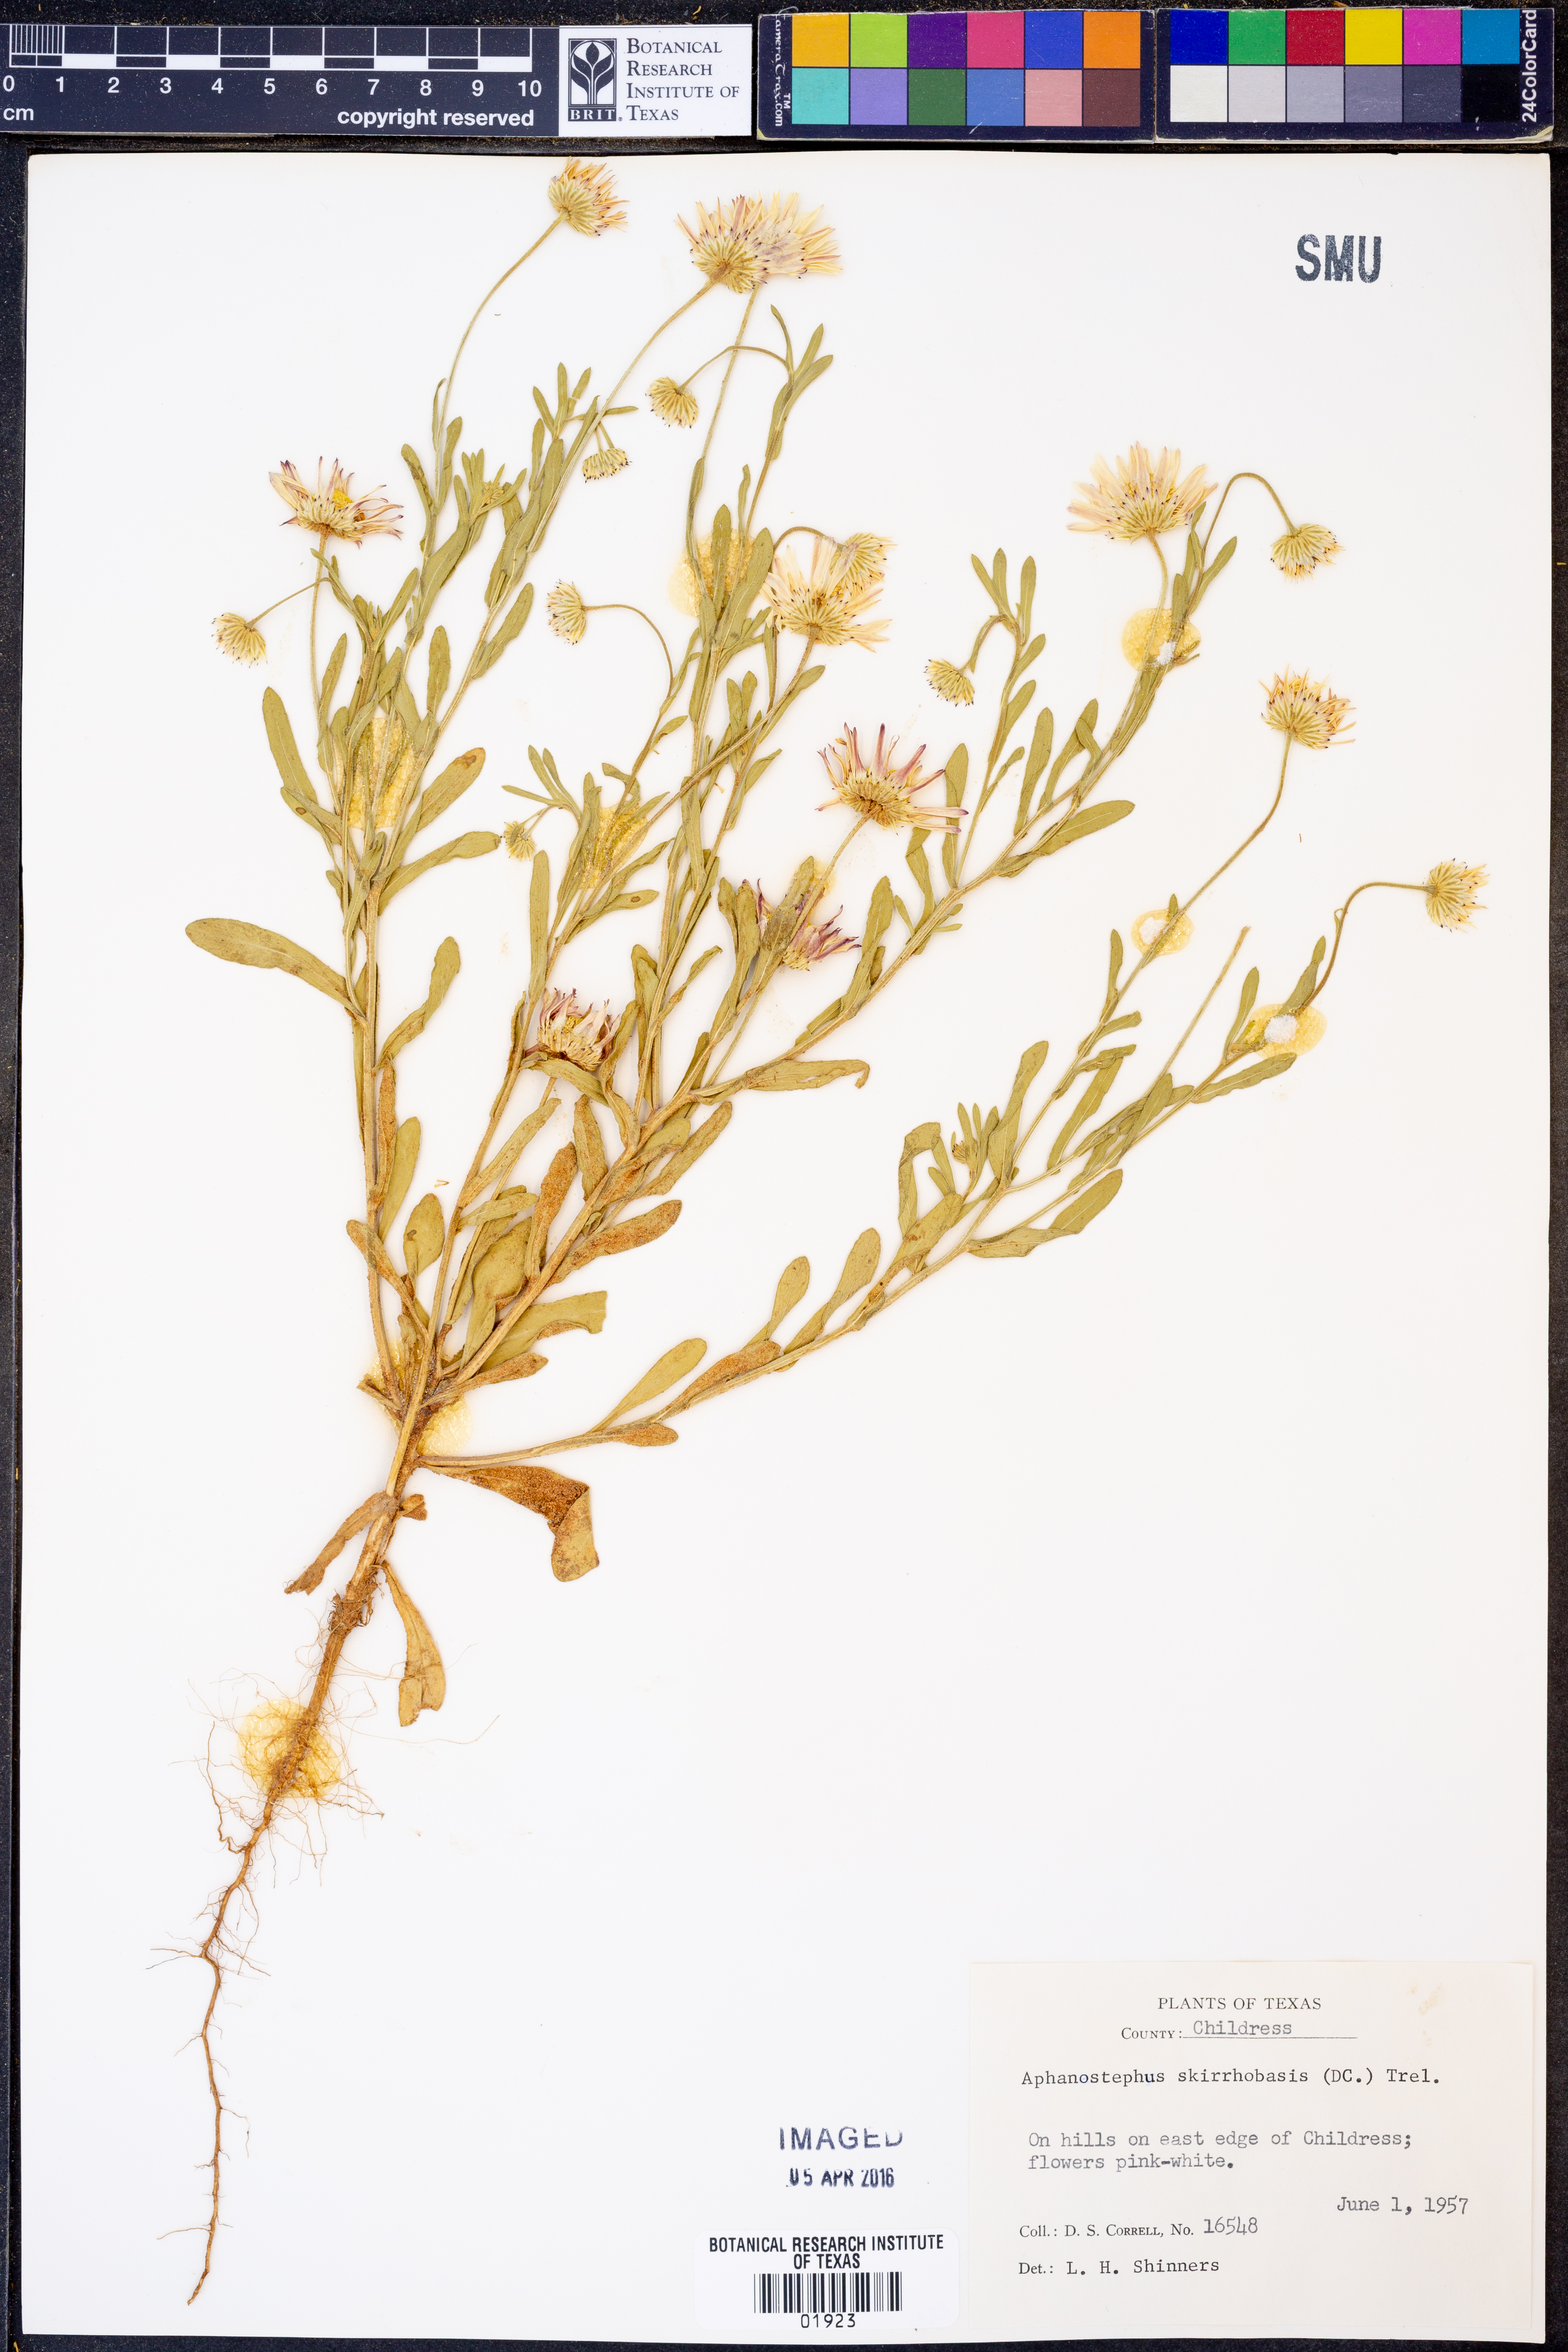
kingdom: Plantae
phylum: Tracheophyta
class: Magnoliopsida
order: Asterales
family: Asteraceae
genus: Aphanostephus
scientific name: Aphanostephus skirrhobasis
